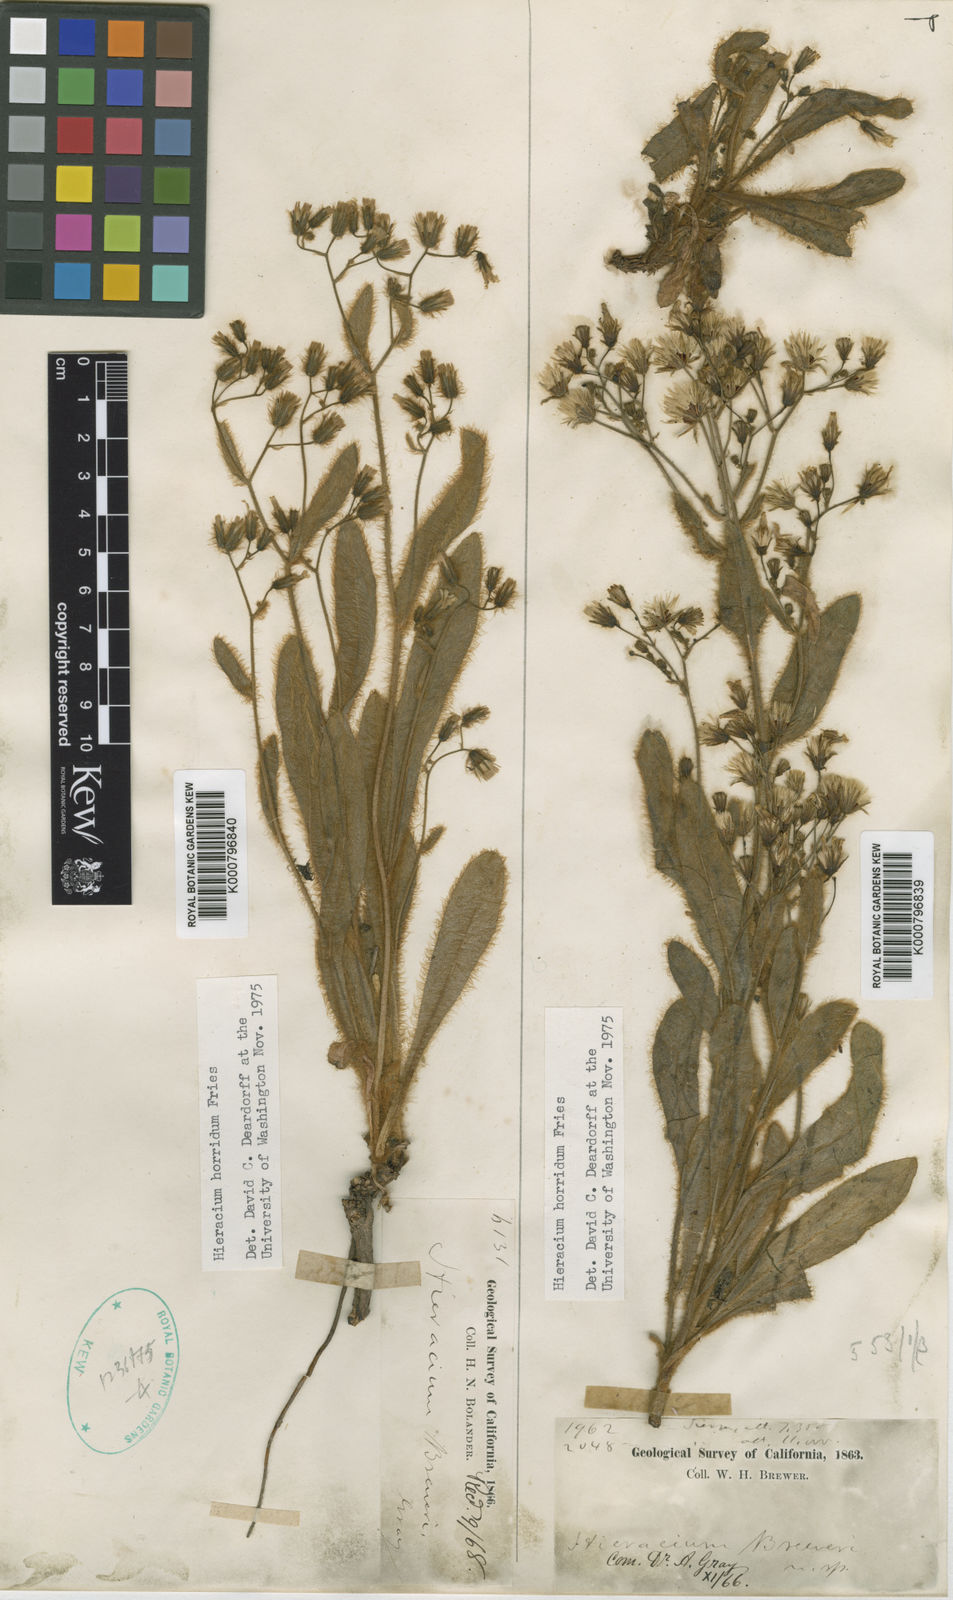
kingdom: Plantae
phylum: Tracheophyta
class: Magnoliopsida
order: Asterales
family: Asteraceae
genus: Hieracium
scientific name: Hieracium horridum
